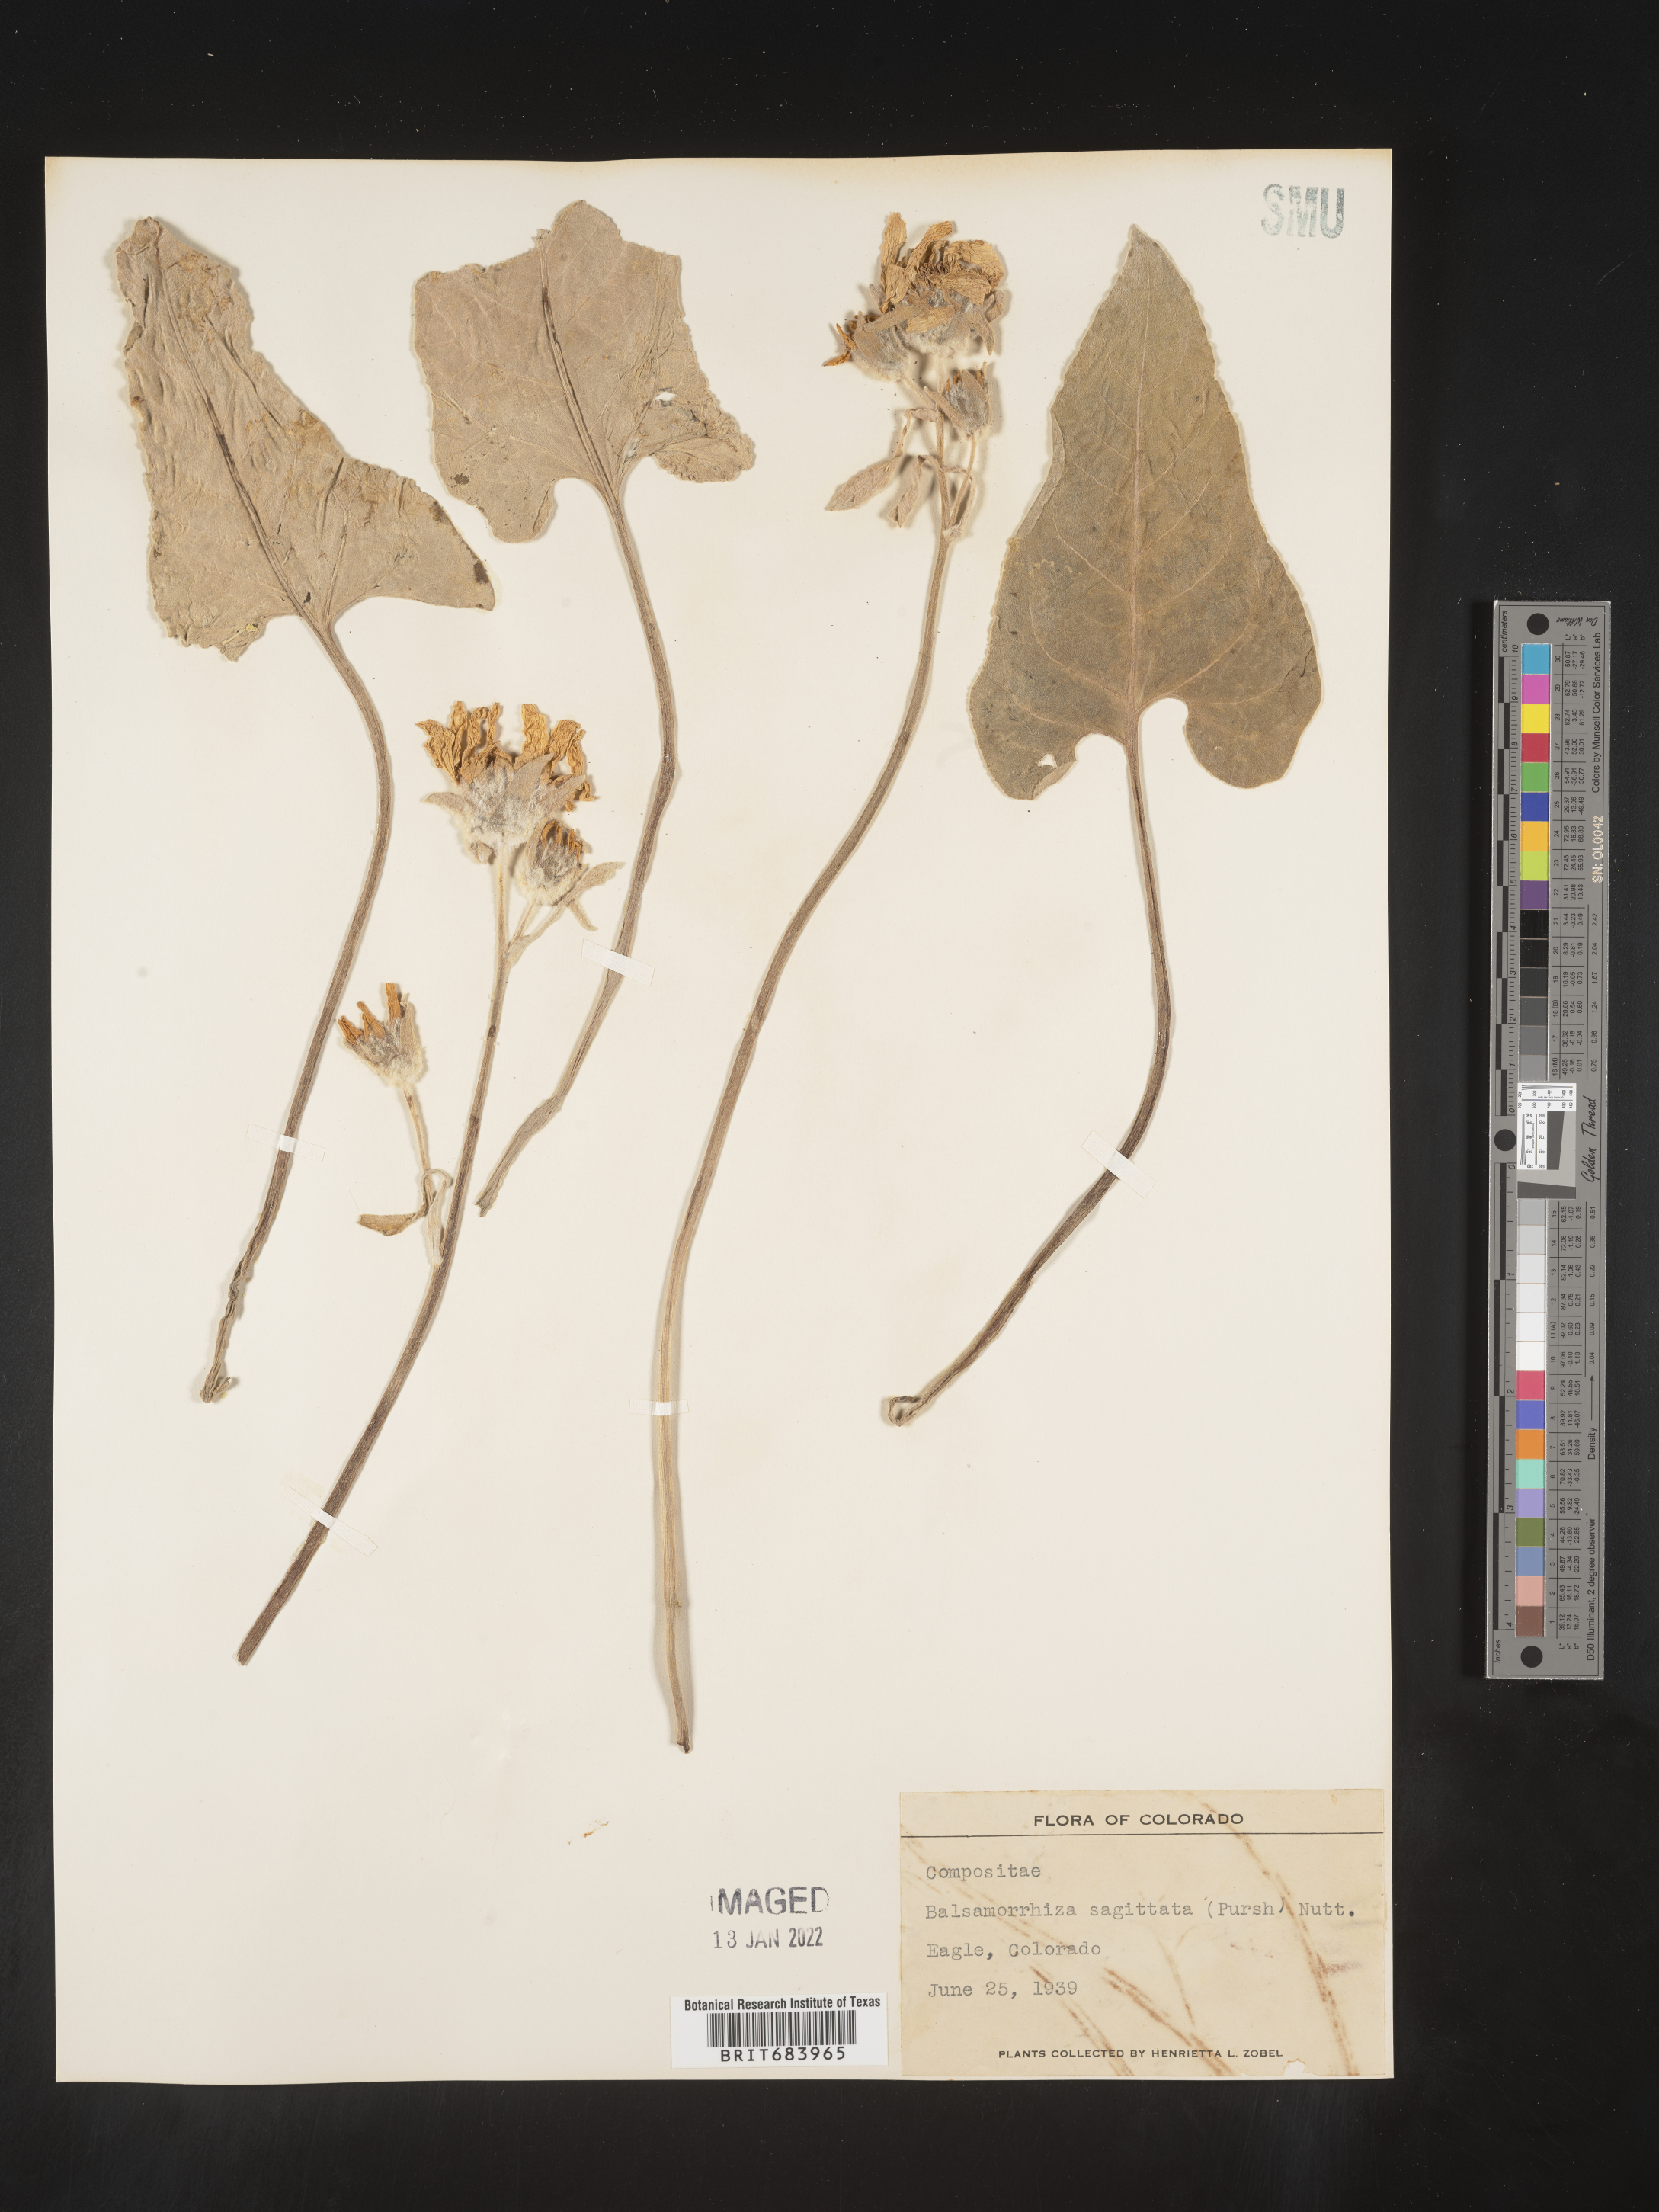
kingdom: Plantae
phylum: Tracheophyta
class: Magnoliopsida
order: Asterales
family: Asteraceae
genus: Wyethia
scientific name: Wyethia sagittata
